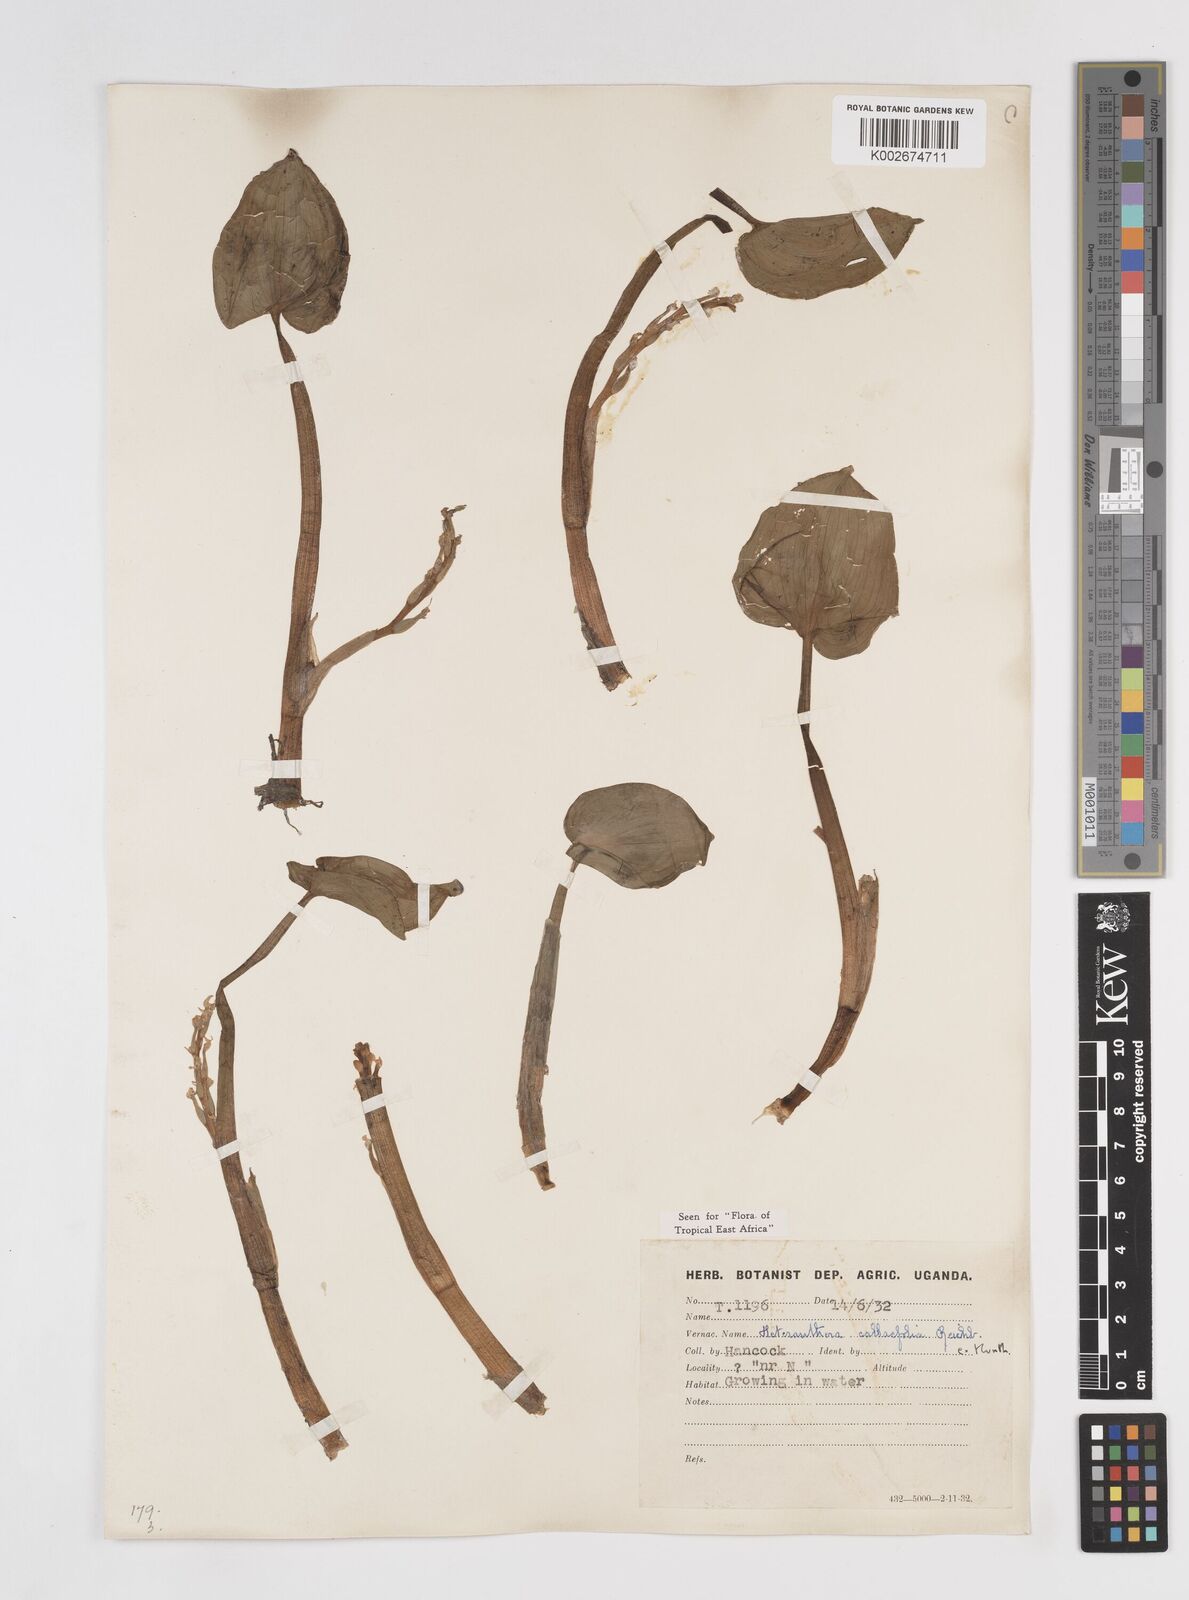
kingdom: Plantae
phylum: Tracheophyta
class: Liliopsida
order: Commelinales
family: Pontederiaceae
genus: Heteranthera
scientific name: Heteranthera callifolia
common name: Mud plantain
